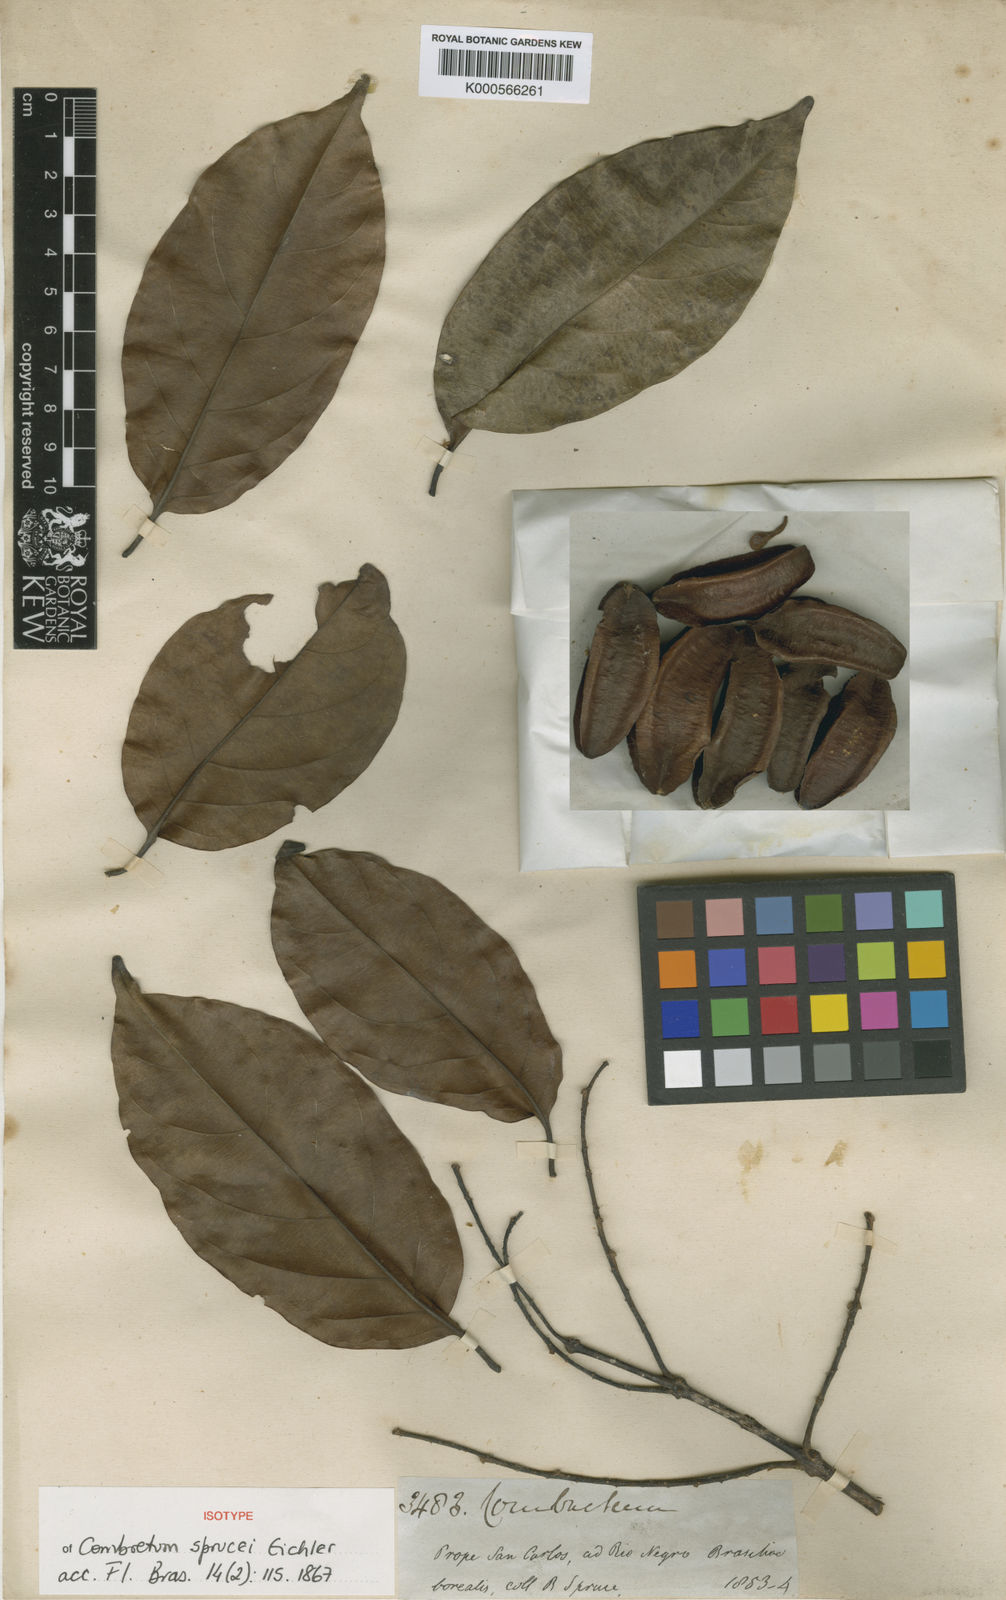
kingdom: Plantae
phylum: Tracheophyta
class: Magnoliopsida
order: Myrtales
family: Combretaceae
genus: Combretum
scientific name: Combretum paraguariense
